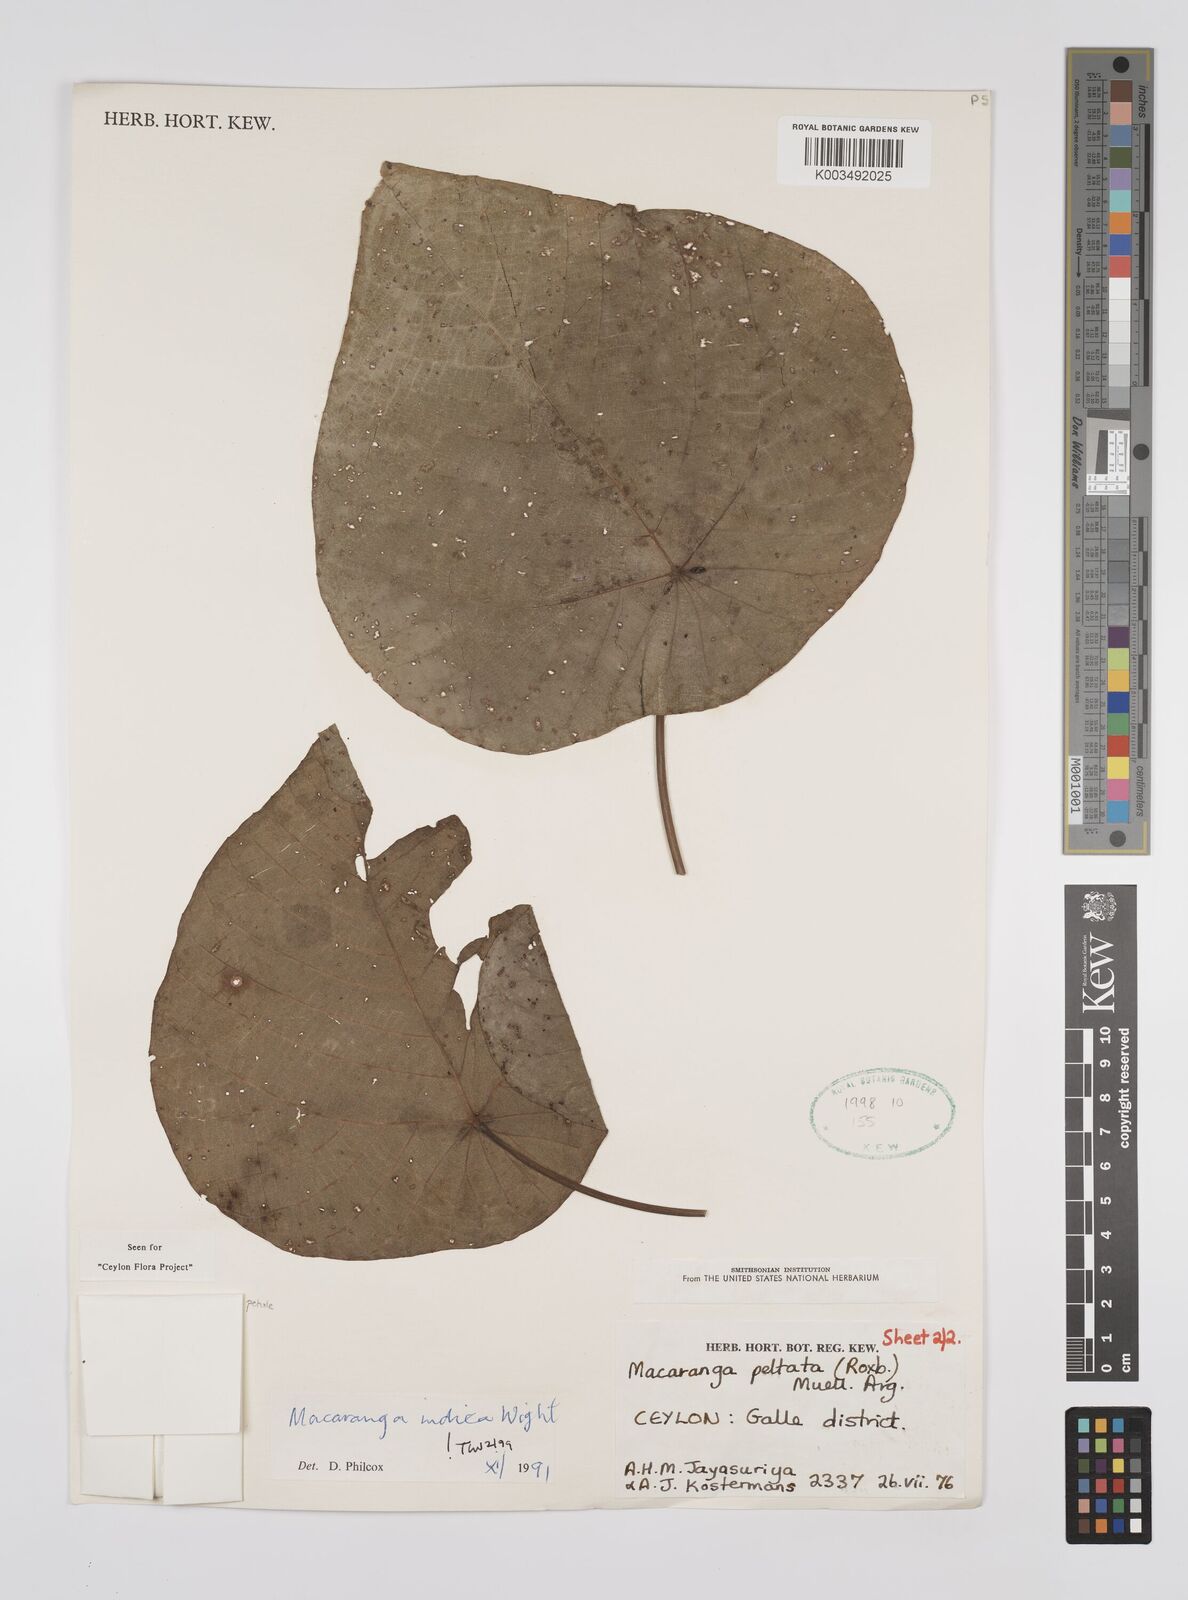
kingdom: Plantae
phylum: Tracheophyta
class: Magnoliopsida
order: Malpighiales
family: Euphorbiaceae
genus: Macaranga
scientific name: Macaranga indica
